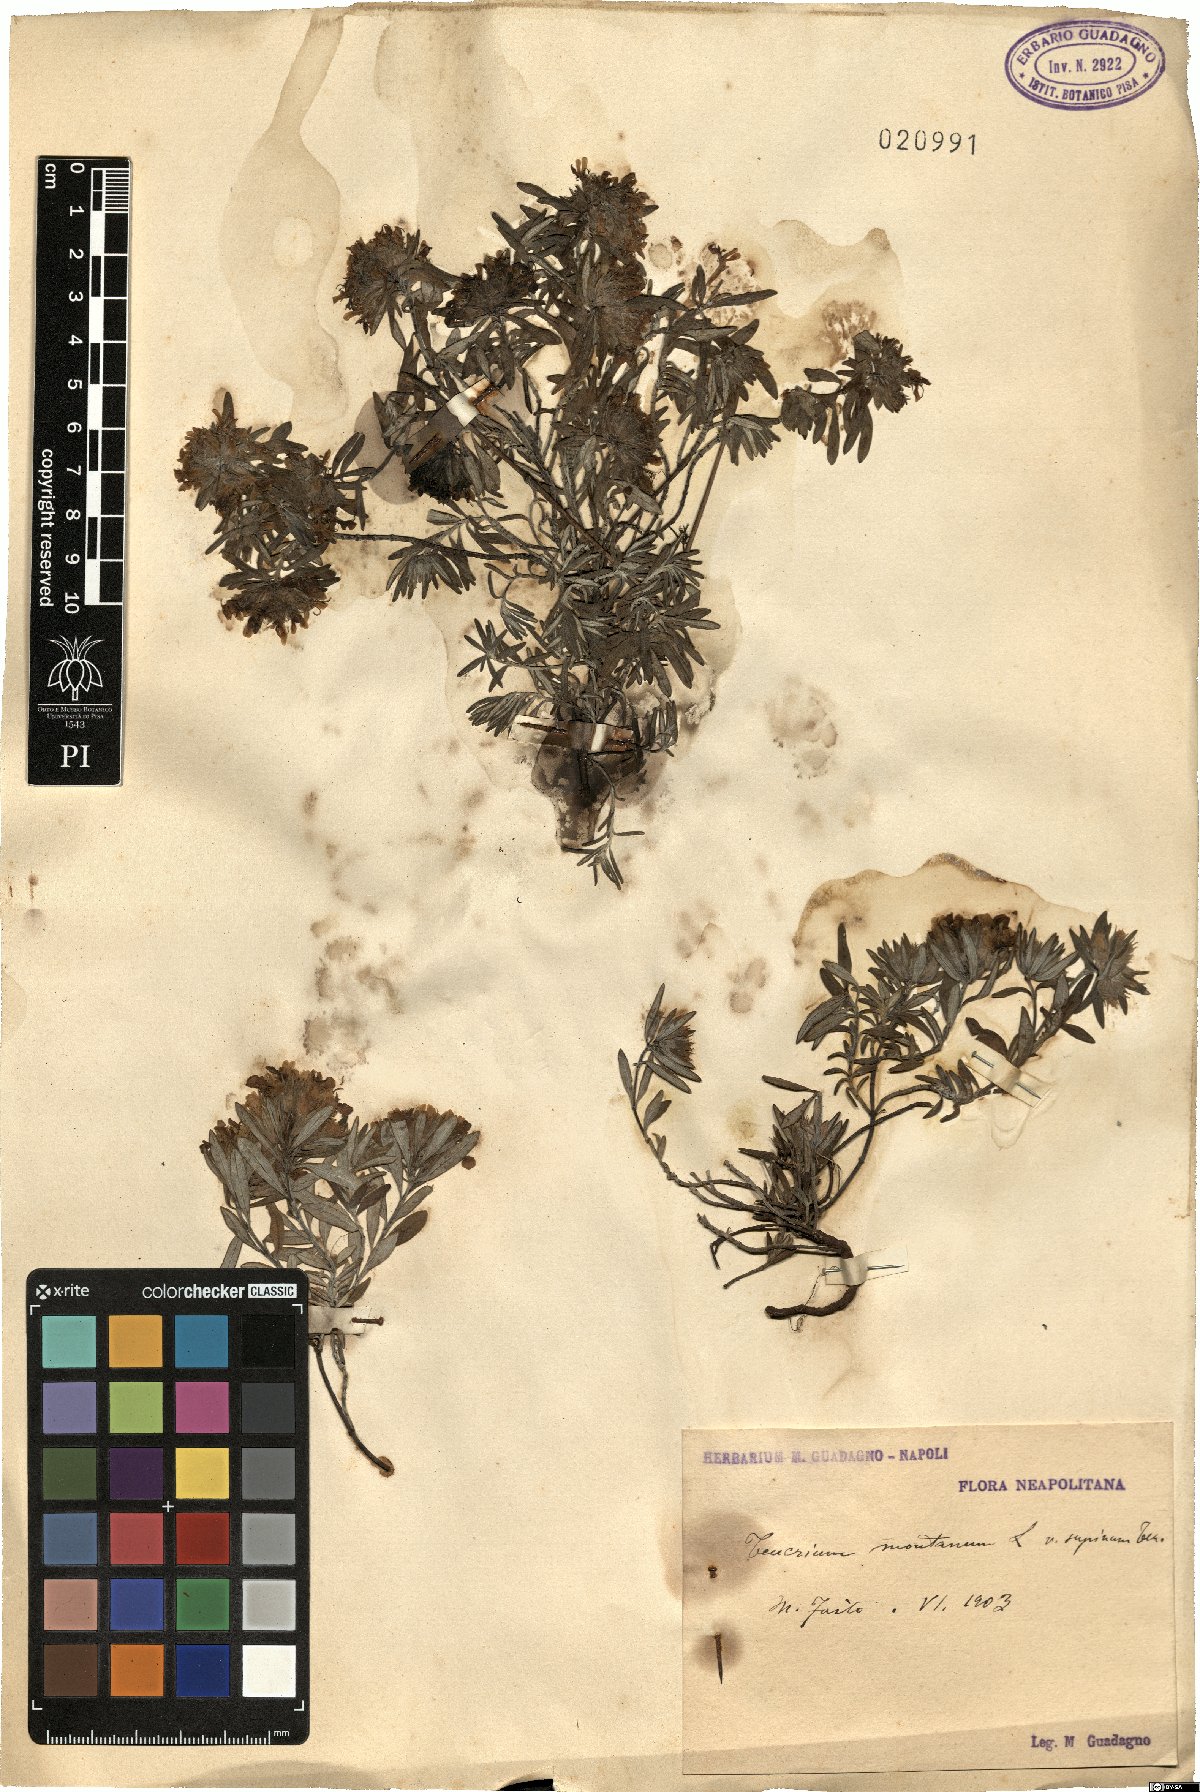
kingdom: Plantae
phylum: Tracheophyta
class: Magnoliopsida
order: Lamiales
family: Lamiaceae
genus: Teucrium
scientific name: Teucrium montanum
